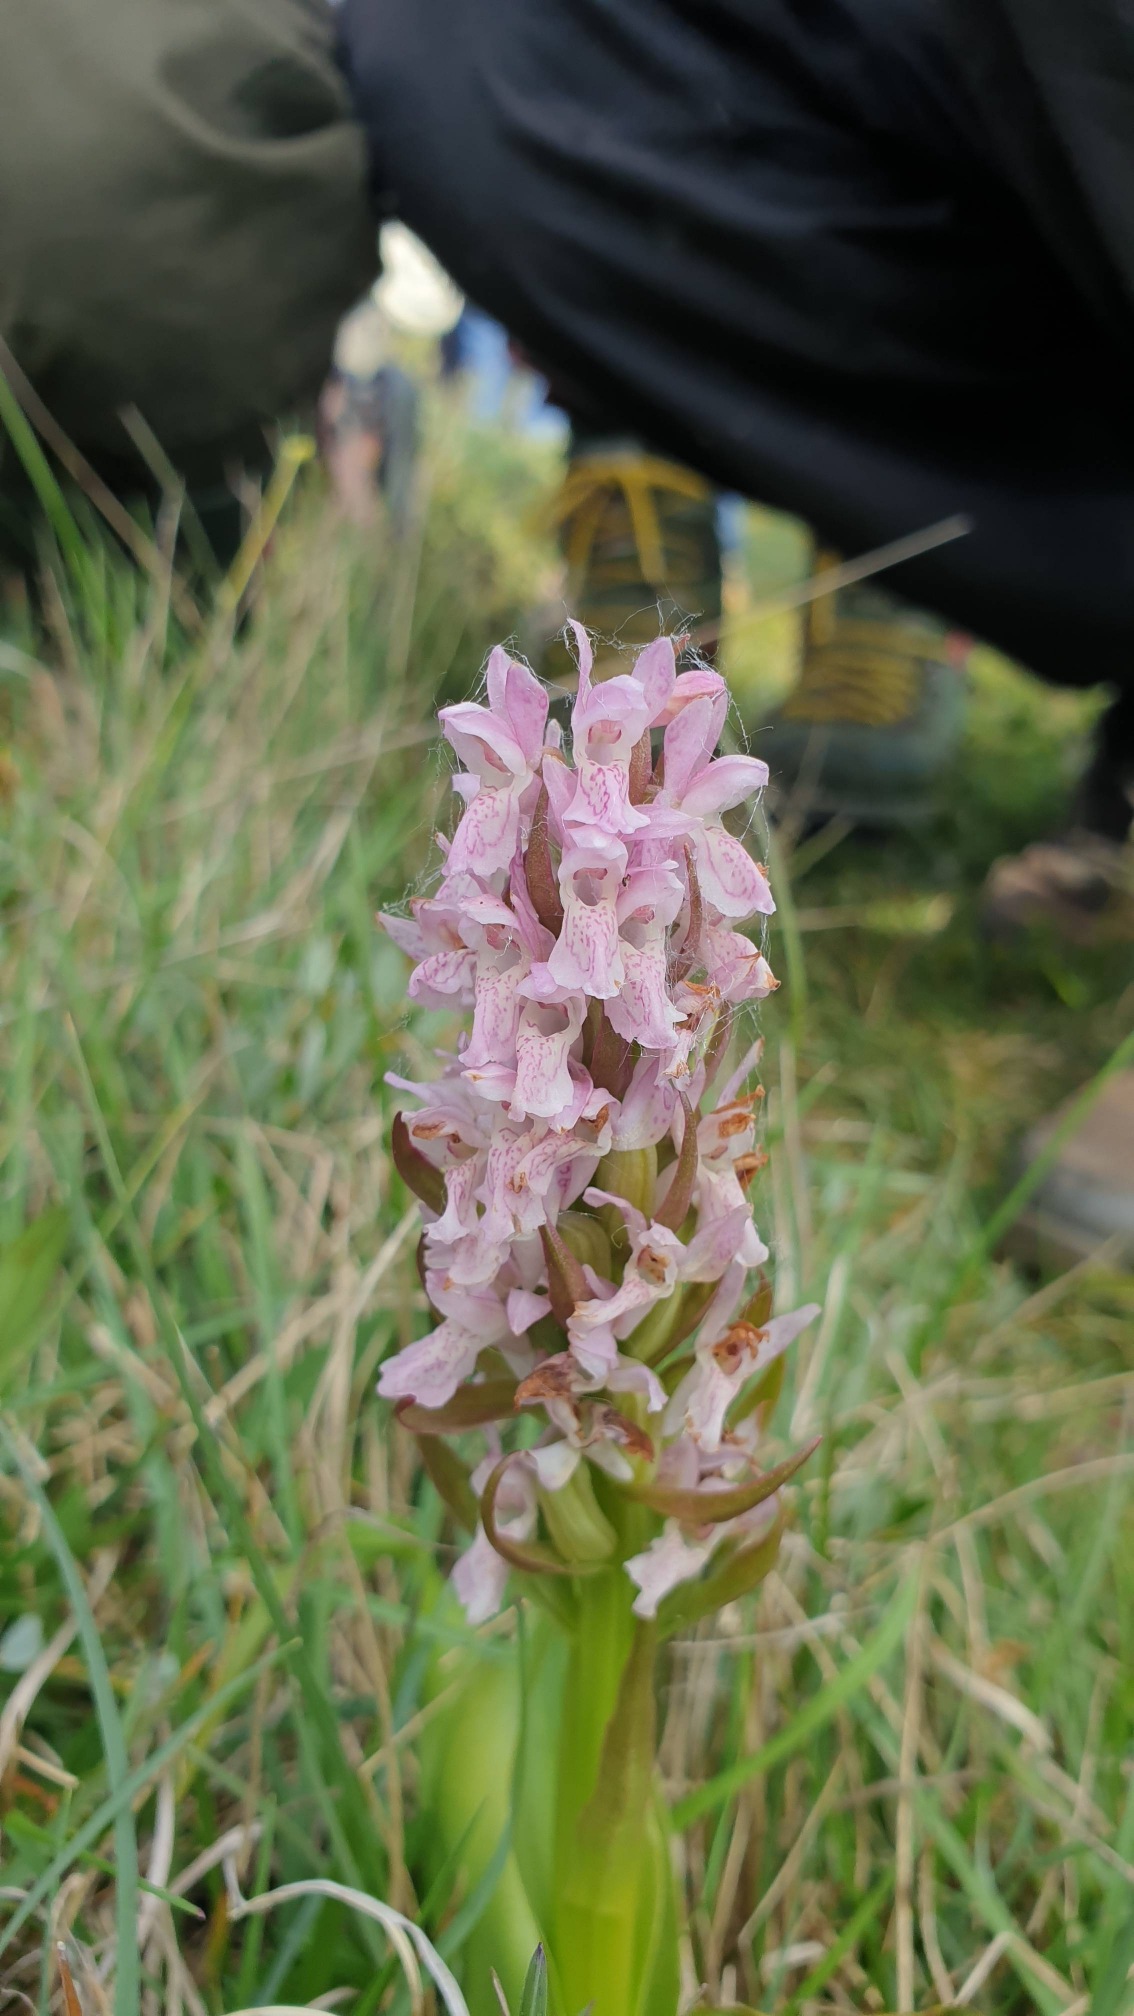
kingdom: Plantae
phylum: Tracheophyta
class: Liliopsida
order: Asparagales
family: Orchidaceae
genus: Dactylorhiza
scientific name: Dactylorhiza incarnata
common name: Kødfarvet gøgeurt
